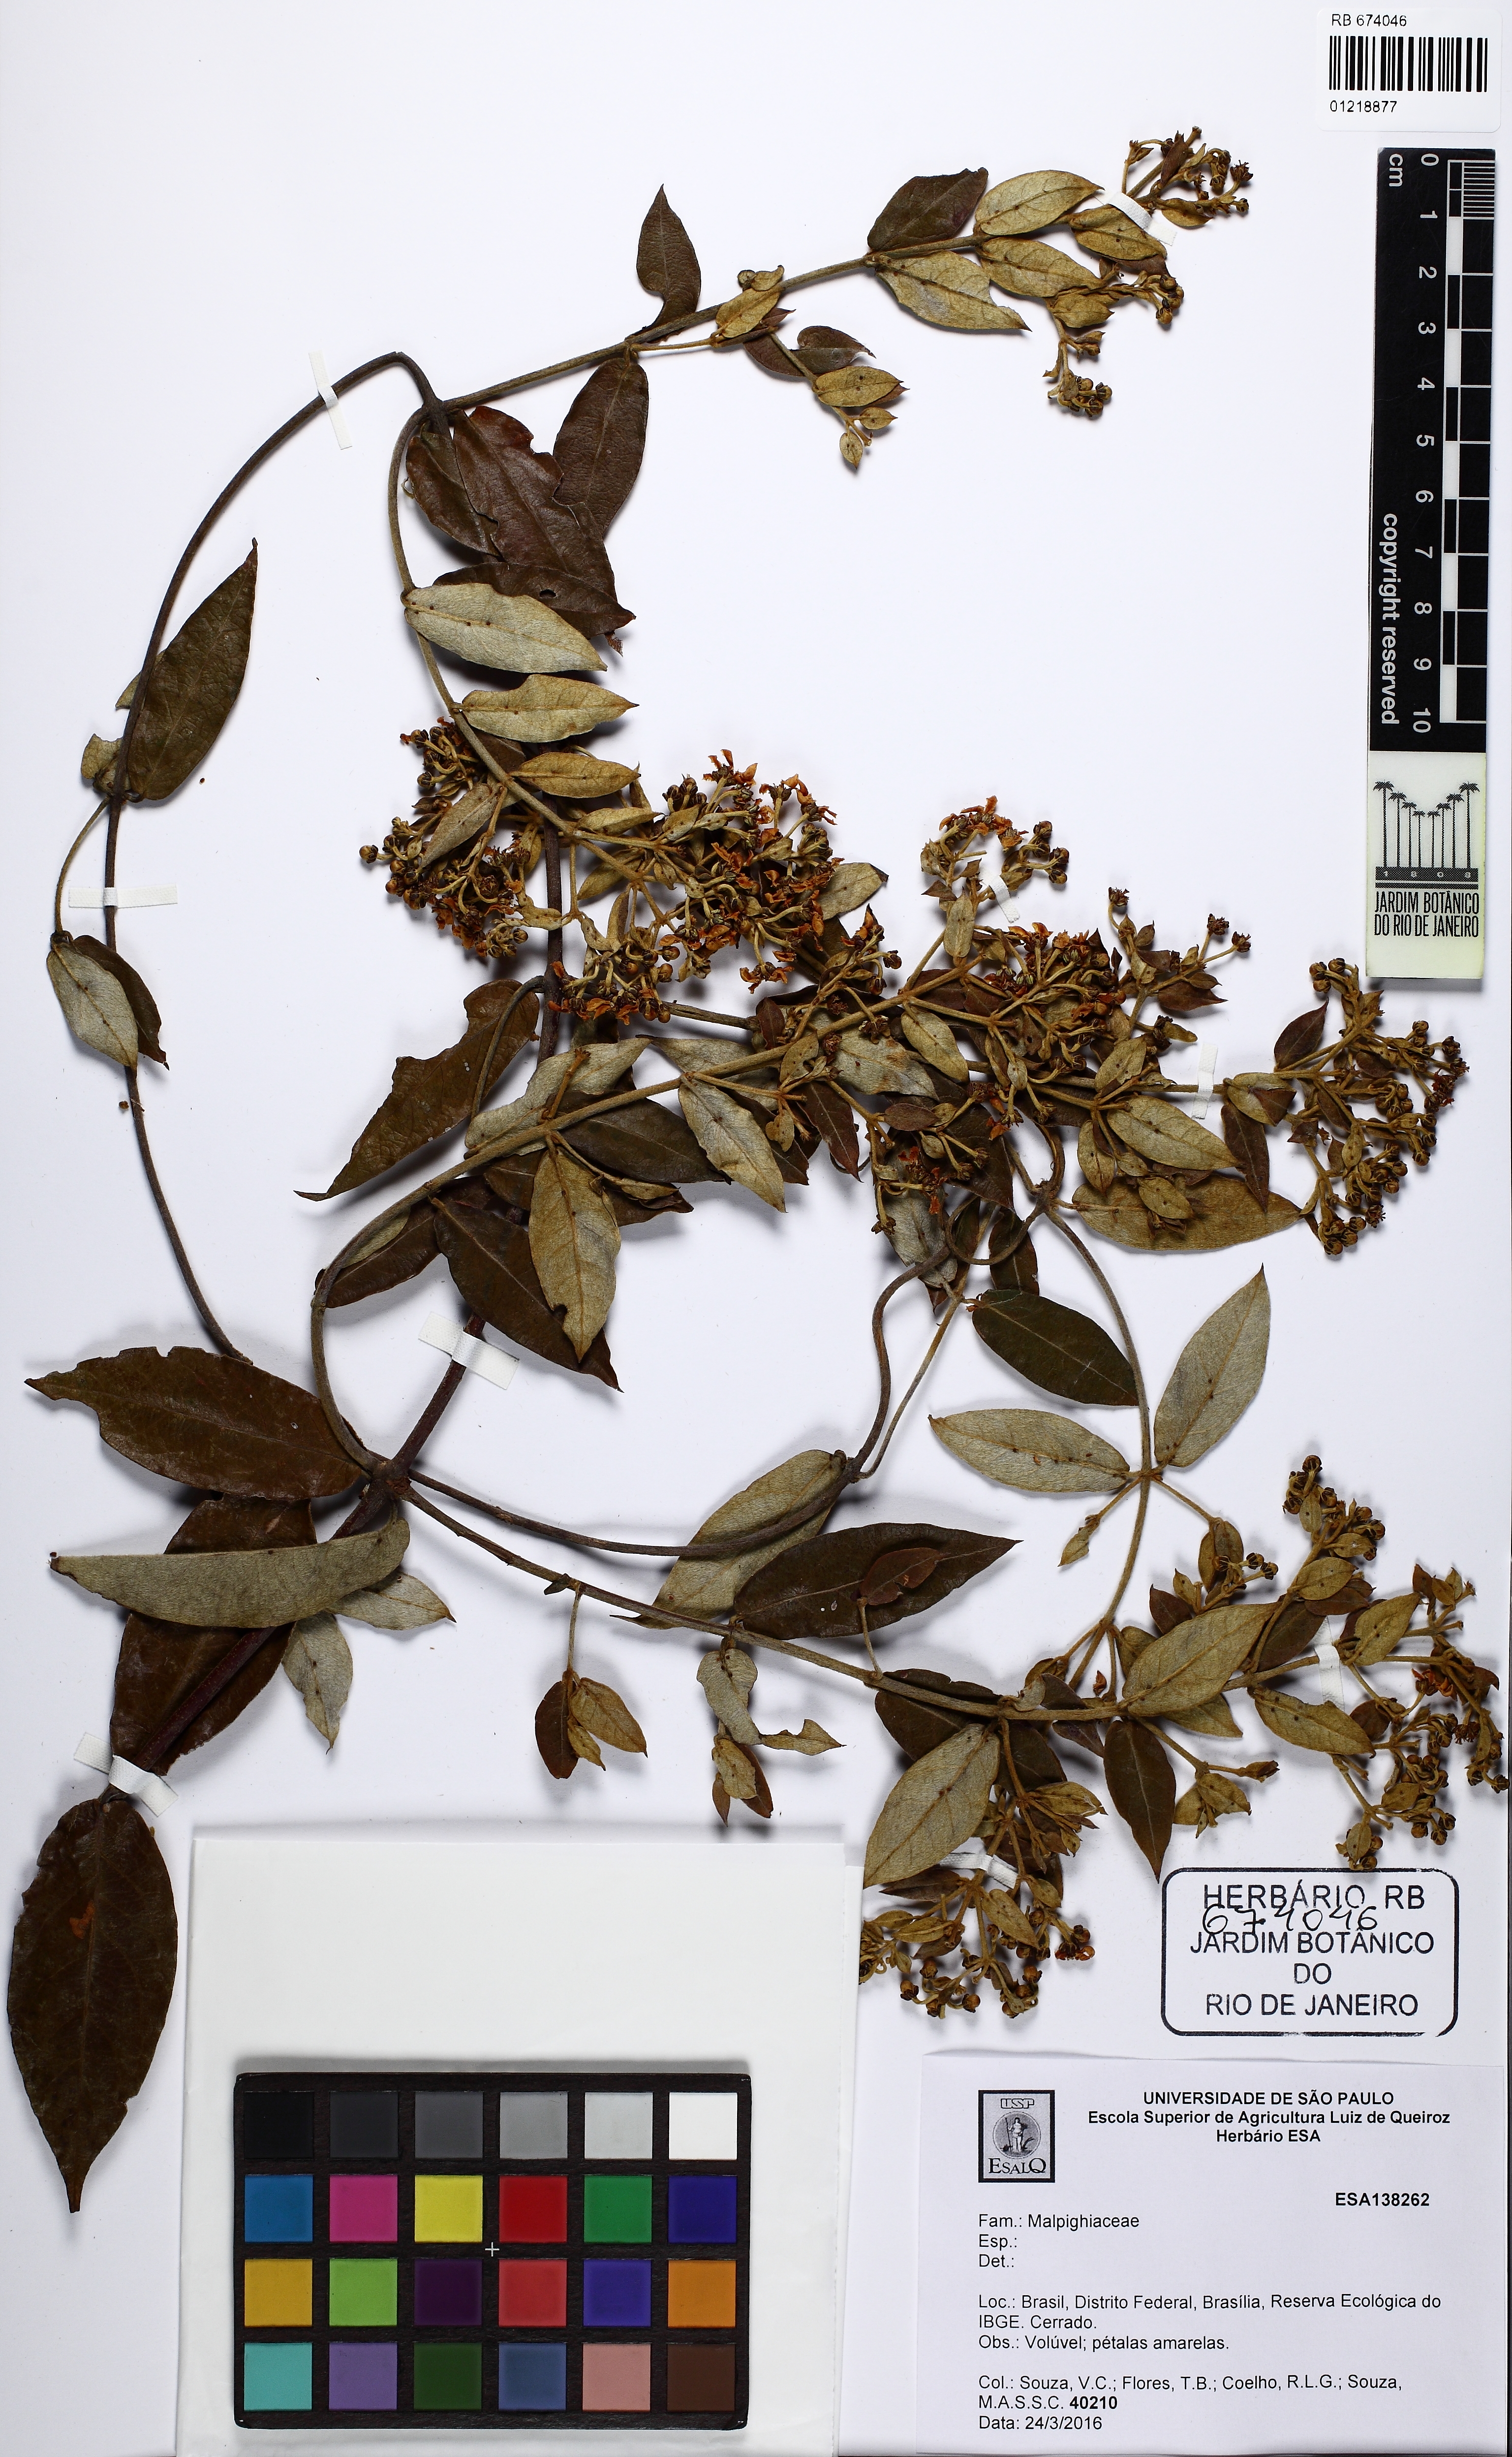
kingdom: Plantae
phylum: Tracheophyta
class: Magnoliopsida
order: Malpighiales
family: Malpighiaceae
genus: Banisteriopsis
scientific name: Banisteriopsis
